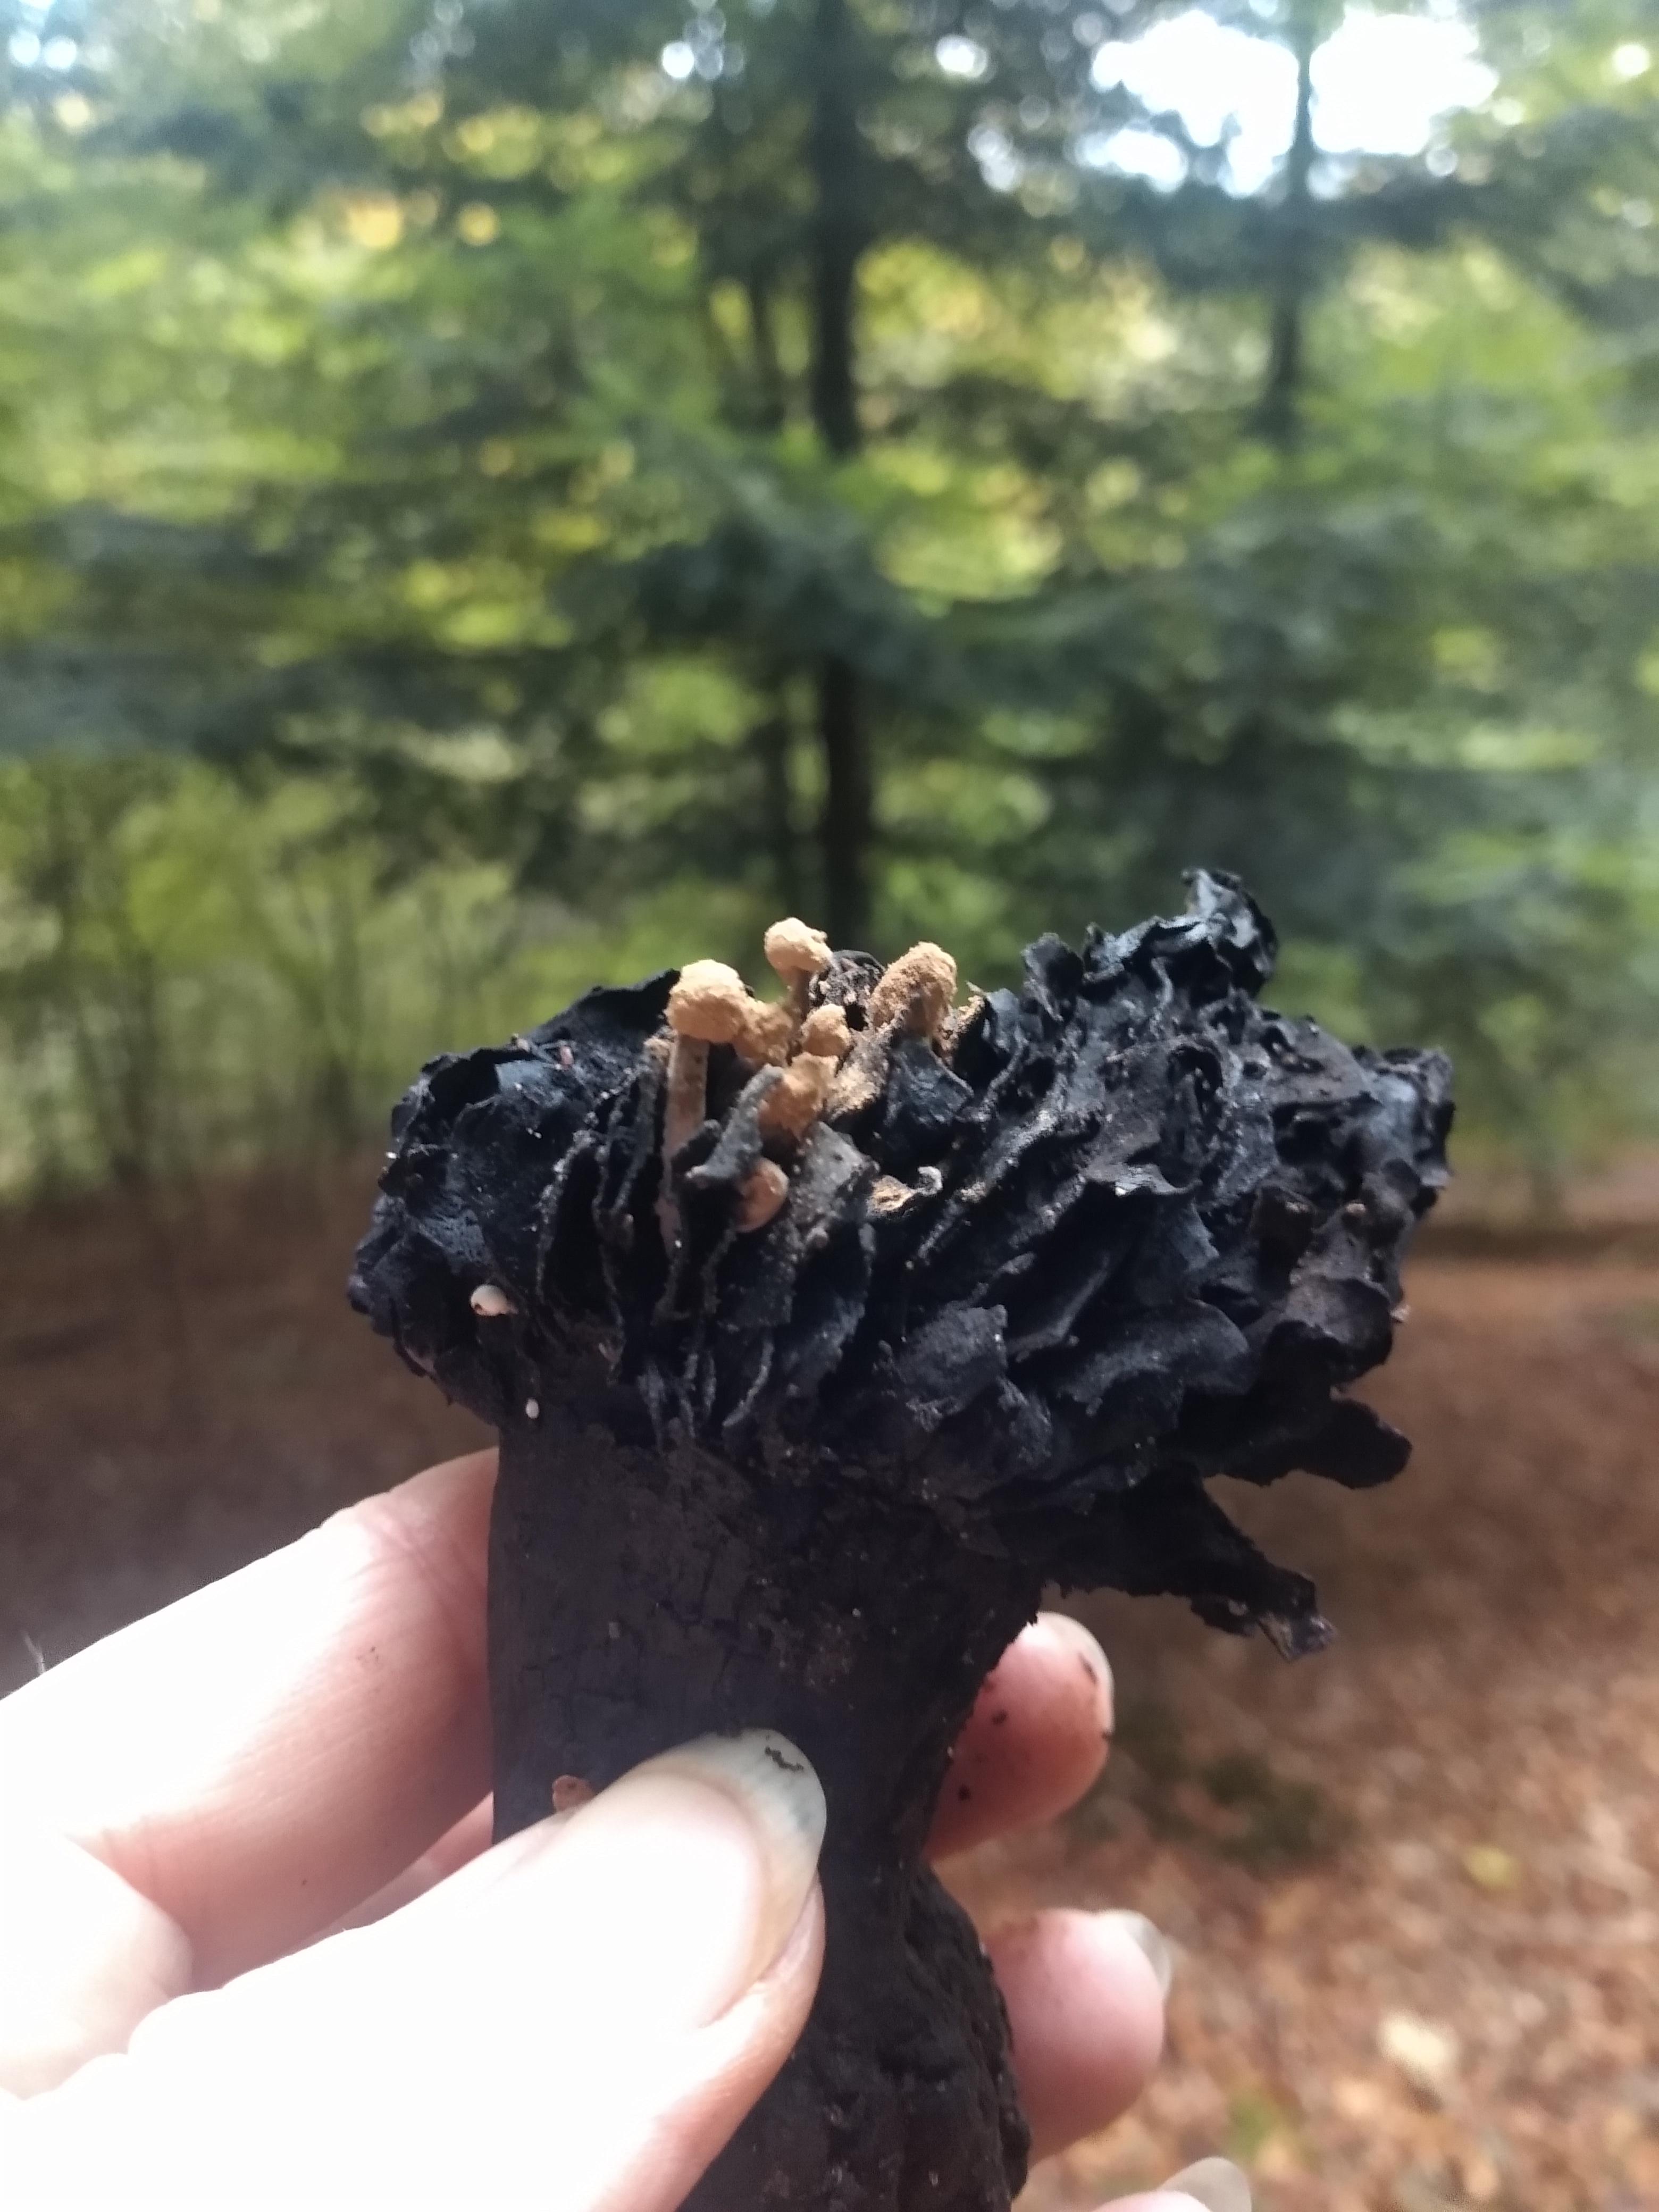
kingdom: Fungi
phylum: Basidiomycota
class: Agaricomycetes
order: Agaricales
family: Lyophyllaceae
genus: Asterophora
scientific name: Asterophora lycoperdoides
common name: brunpudret snyltehat
